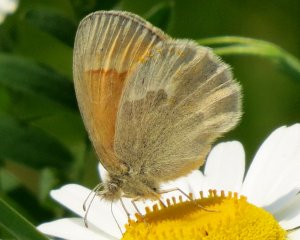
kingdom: Animalia
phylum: Arthropoda
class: Insecta
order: Lepidoptera
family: Nymphalidae
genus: Coenonympha
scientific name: Coenonympha tullia
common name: Large Heath
